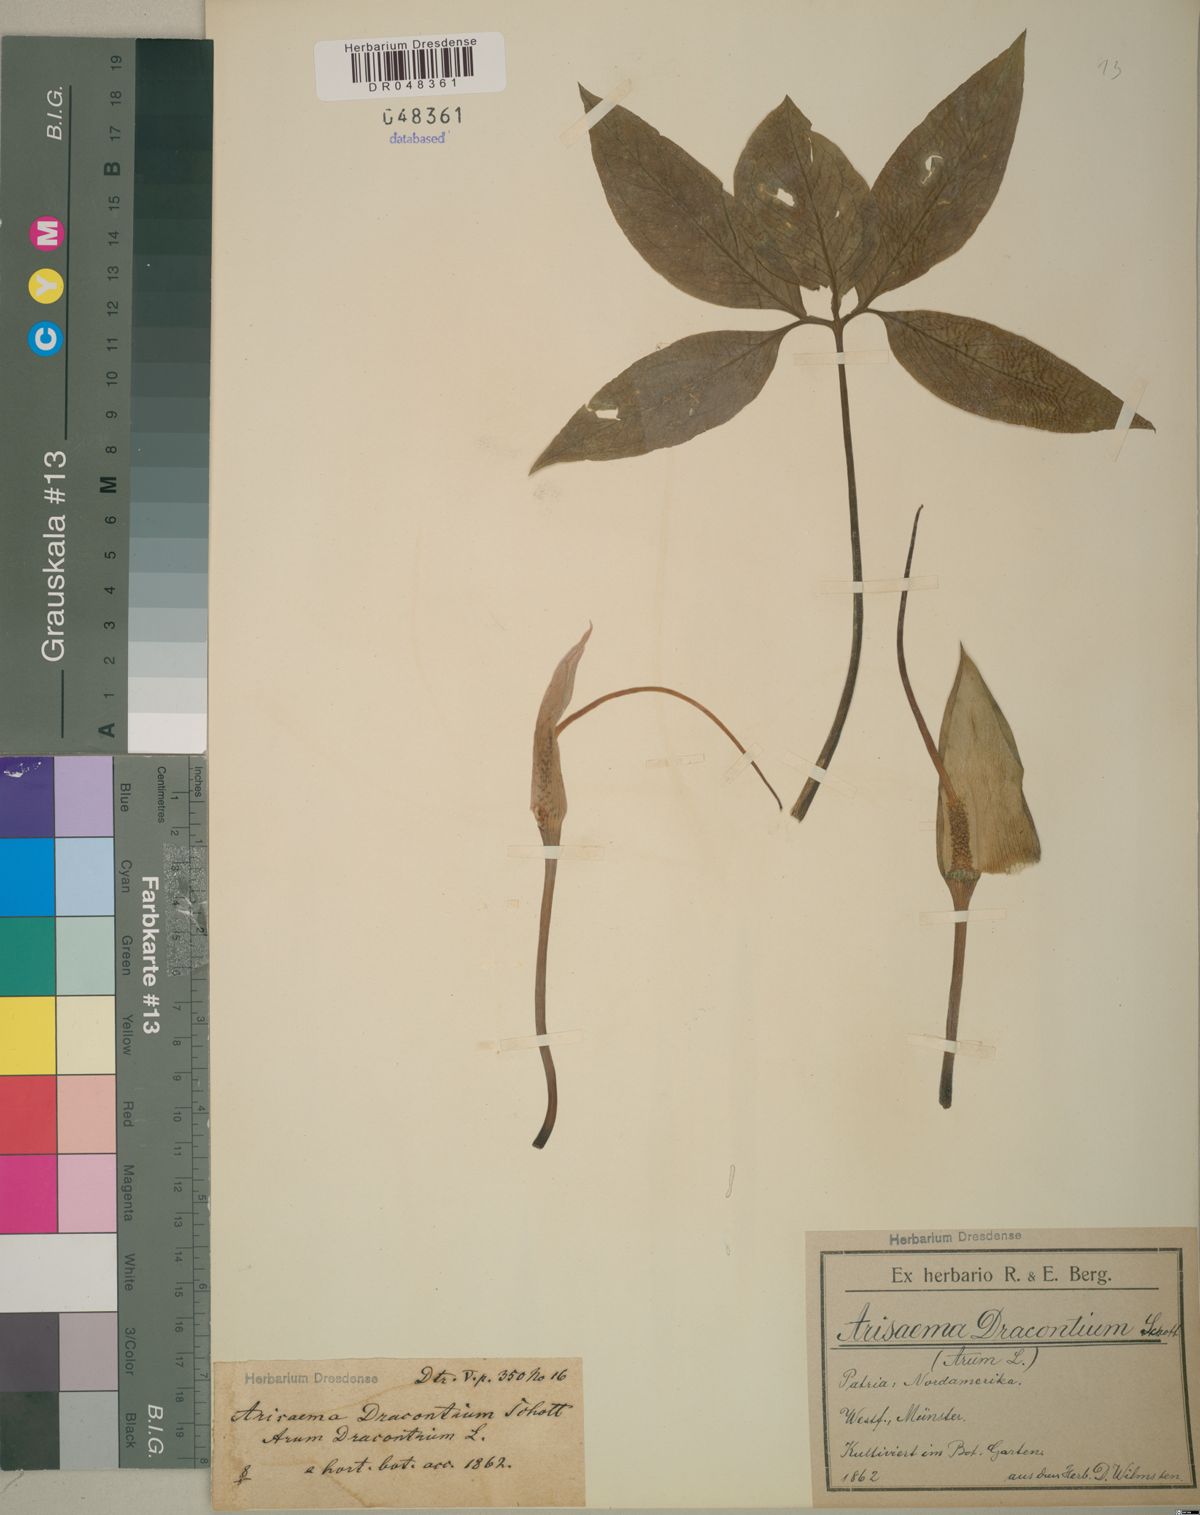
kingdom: Plantae
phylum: Tracheophyta
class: Liliopsida
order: Alismatales
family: Araceae
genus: Arisaema
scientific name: Arisaema dracontium
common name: Dragon-arum
